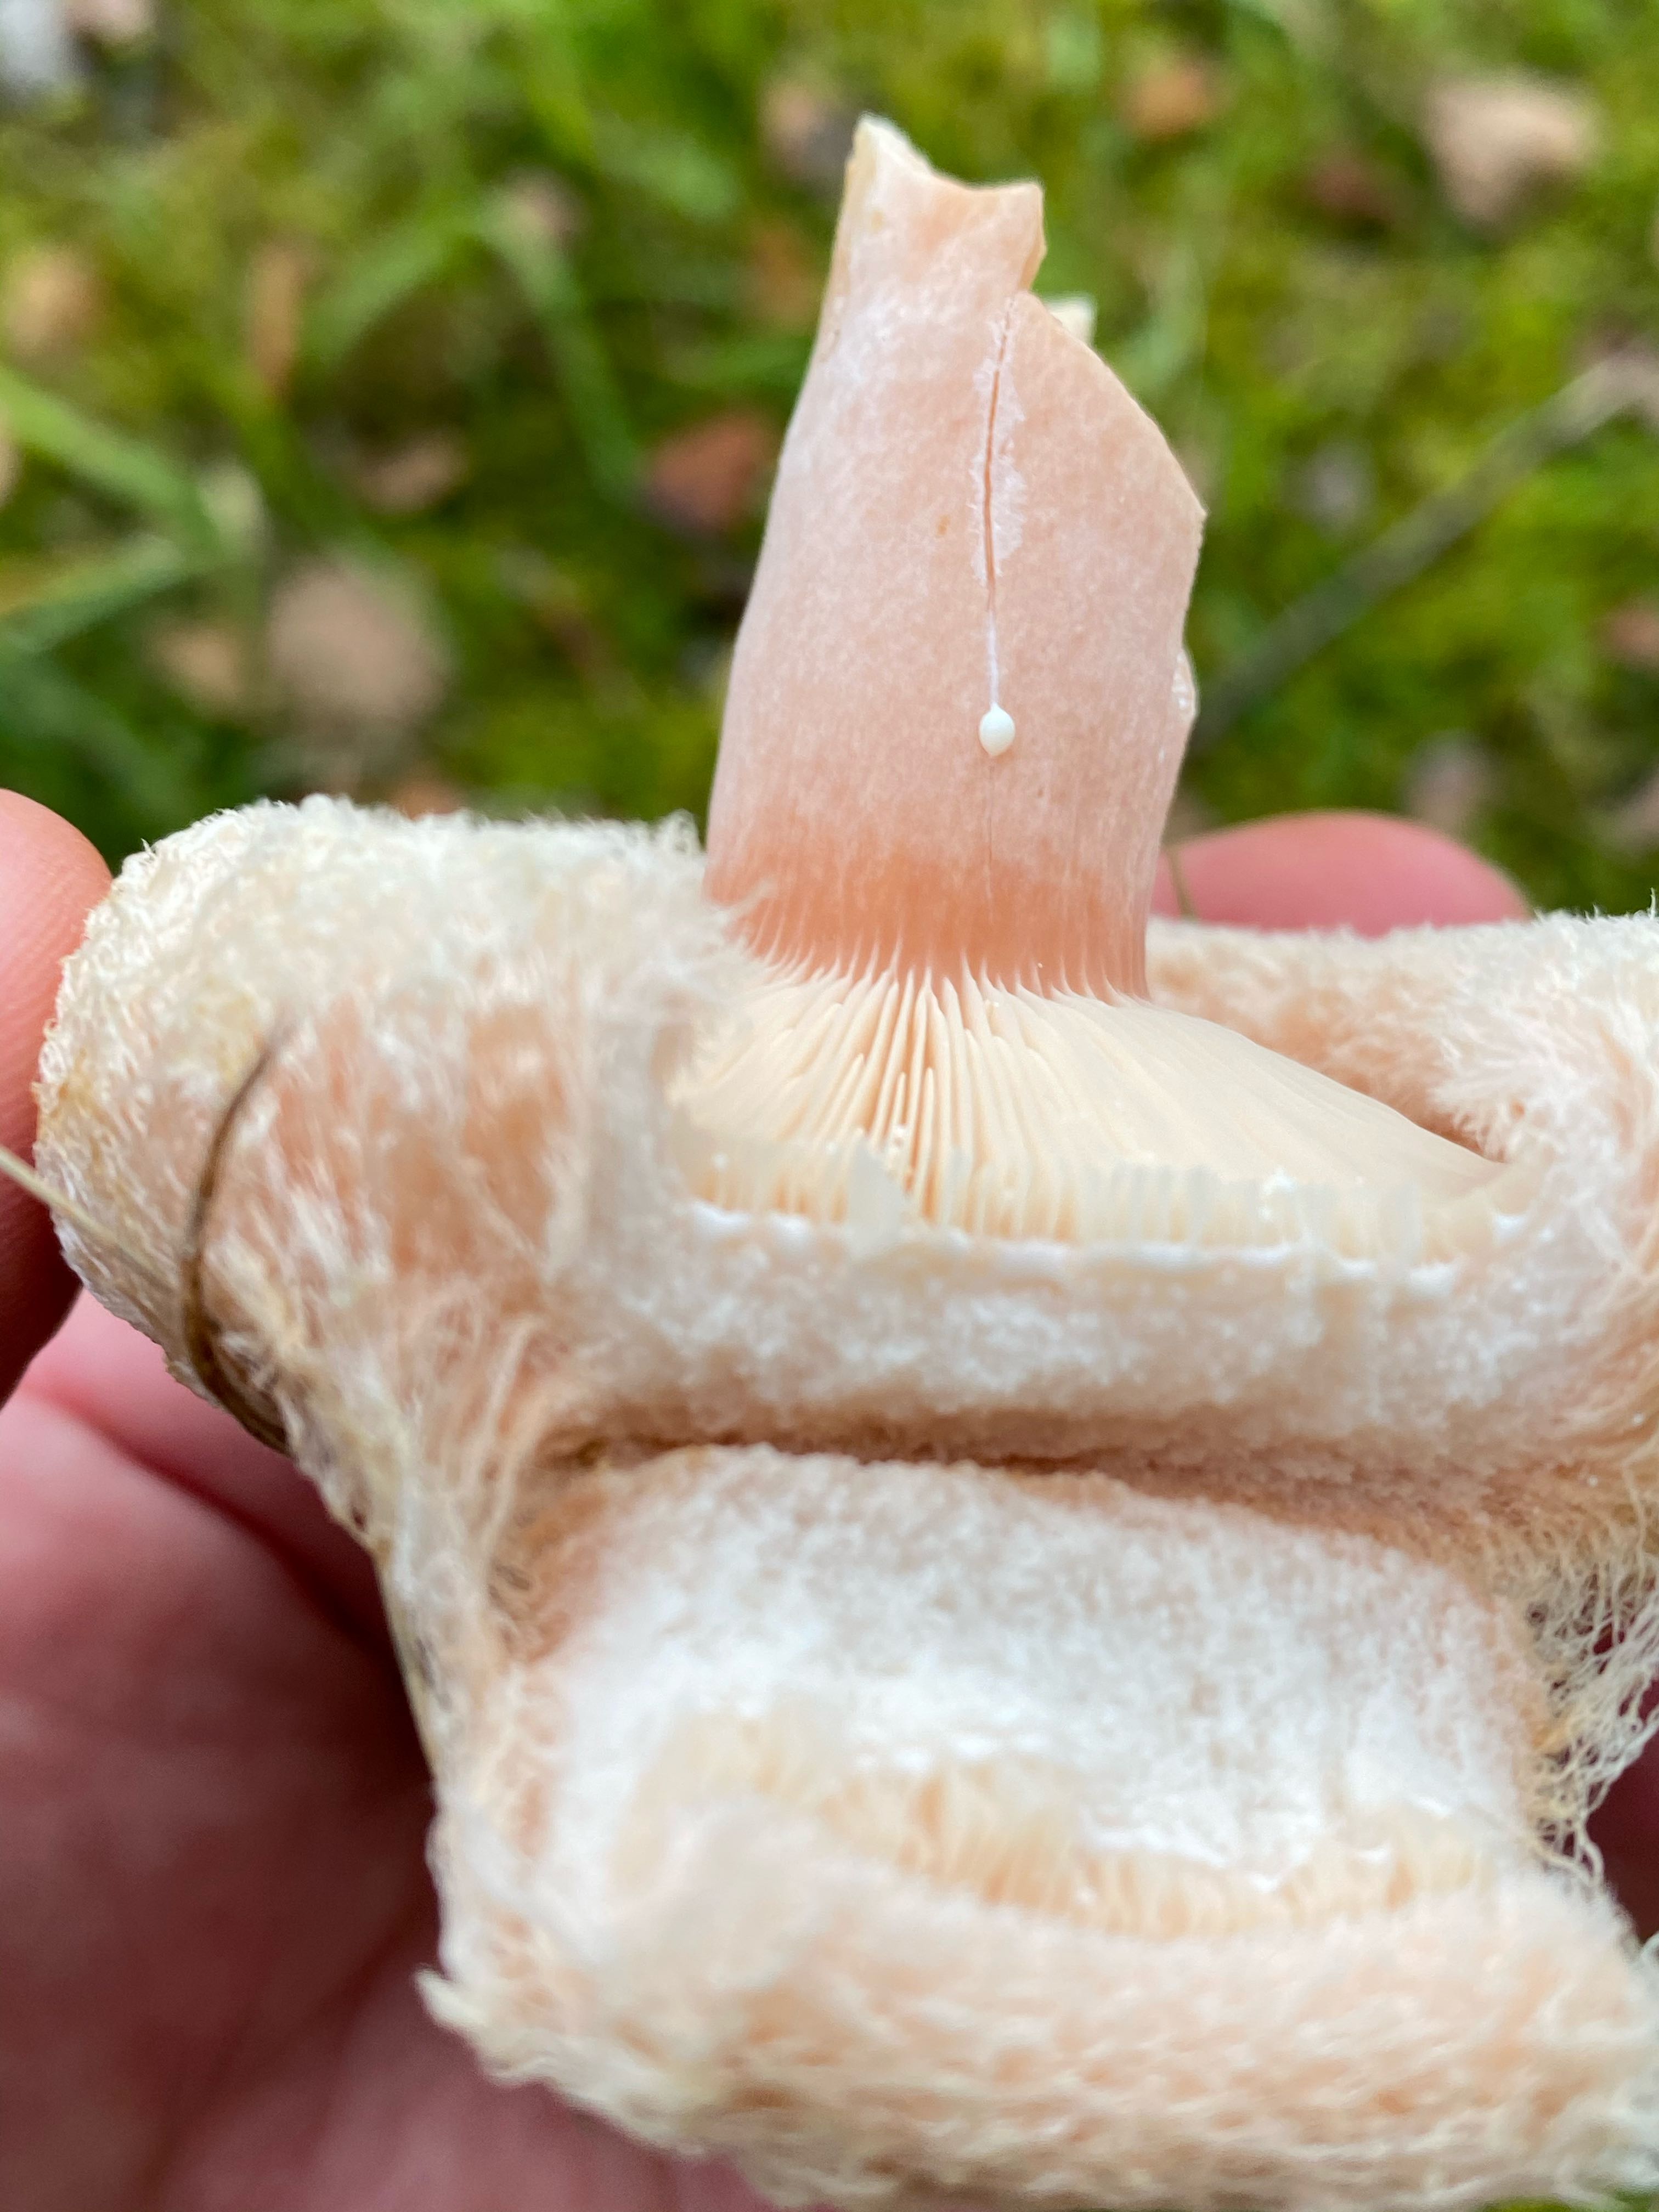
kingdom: Fungi
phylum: Basidiomycota
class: Agaricomycetes
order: Russulales
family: Russulaceae
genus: Lactarius
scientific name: Lactarius torminosus
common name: skægget mælkehat
